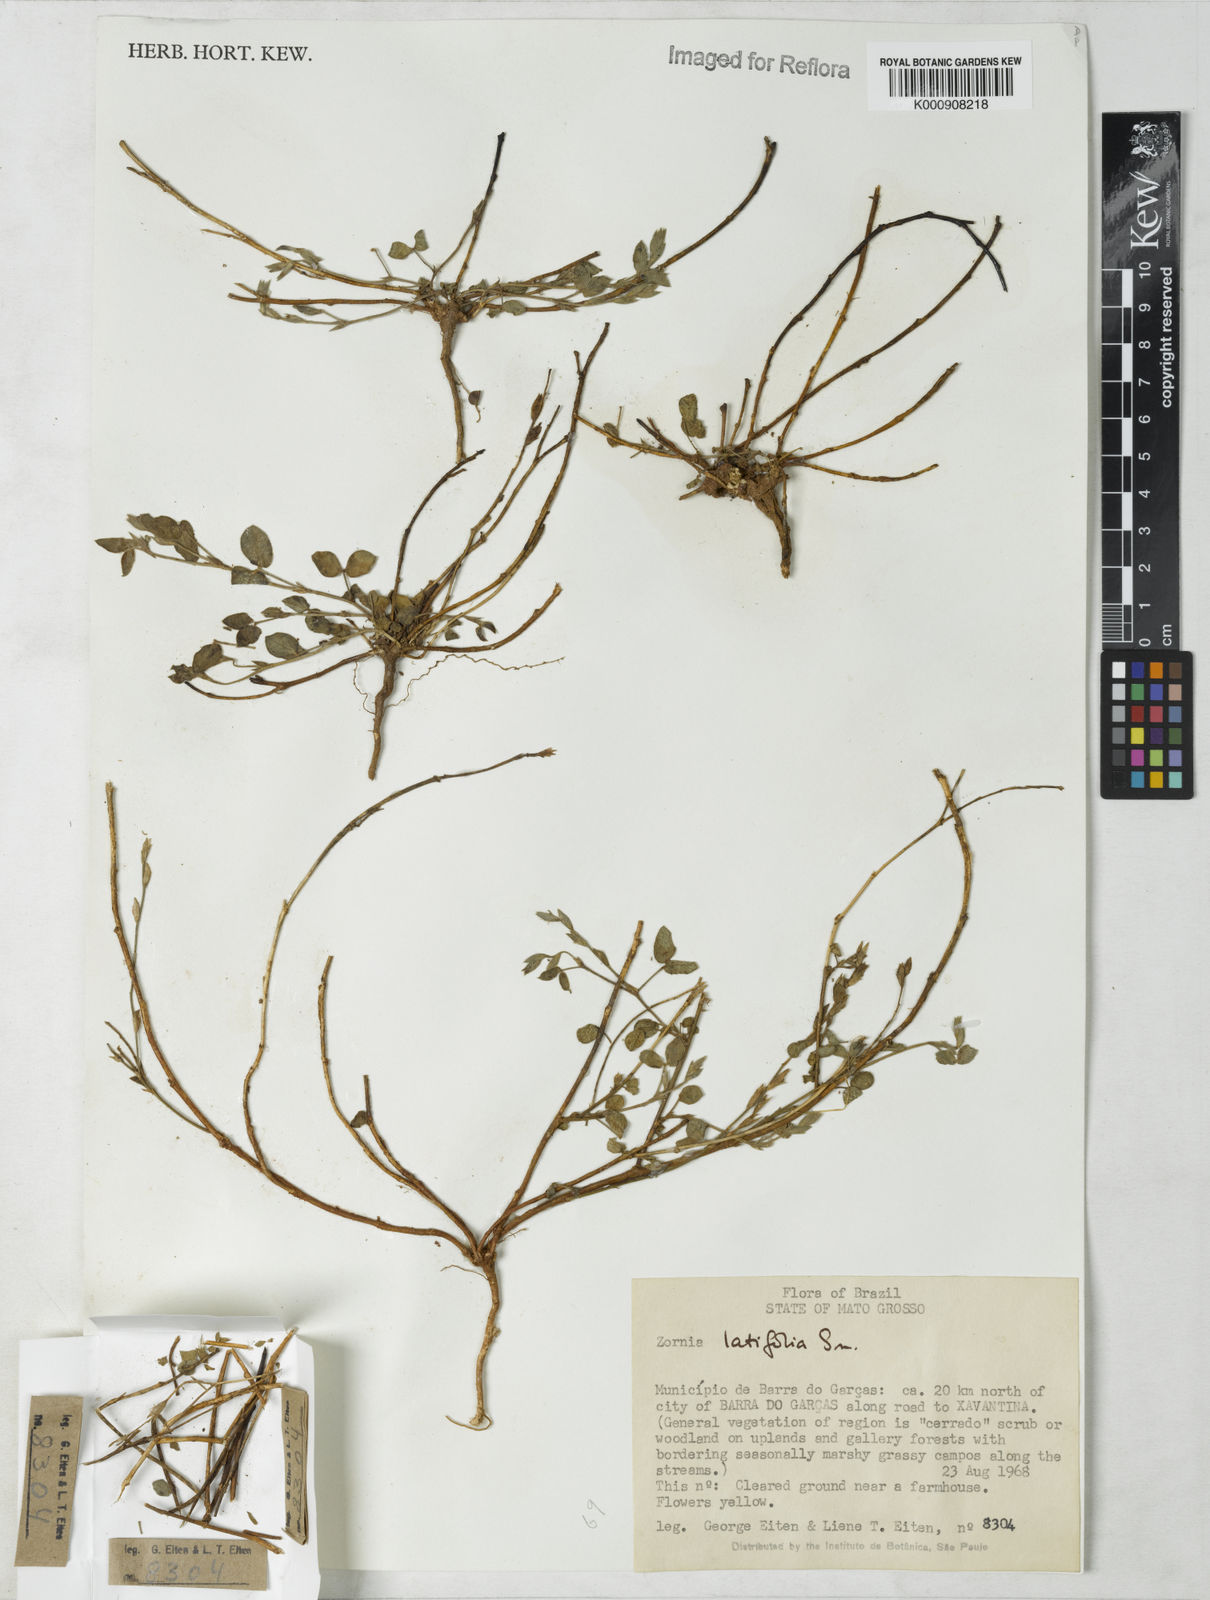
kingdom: Plantae
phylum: Tracheophyta
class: Magnoliopsida
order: Fabales
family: Fabaceae
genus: Zornia
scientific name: Zornia latifolia
